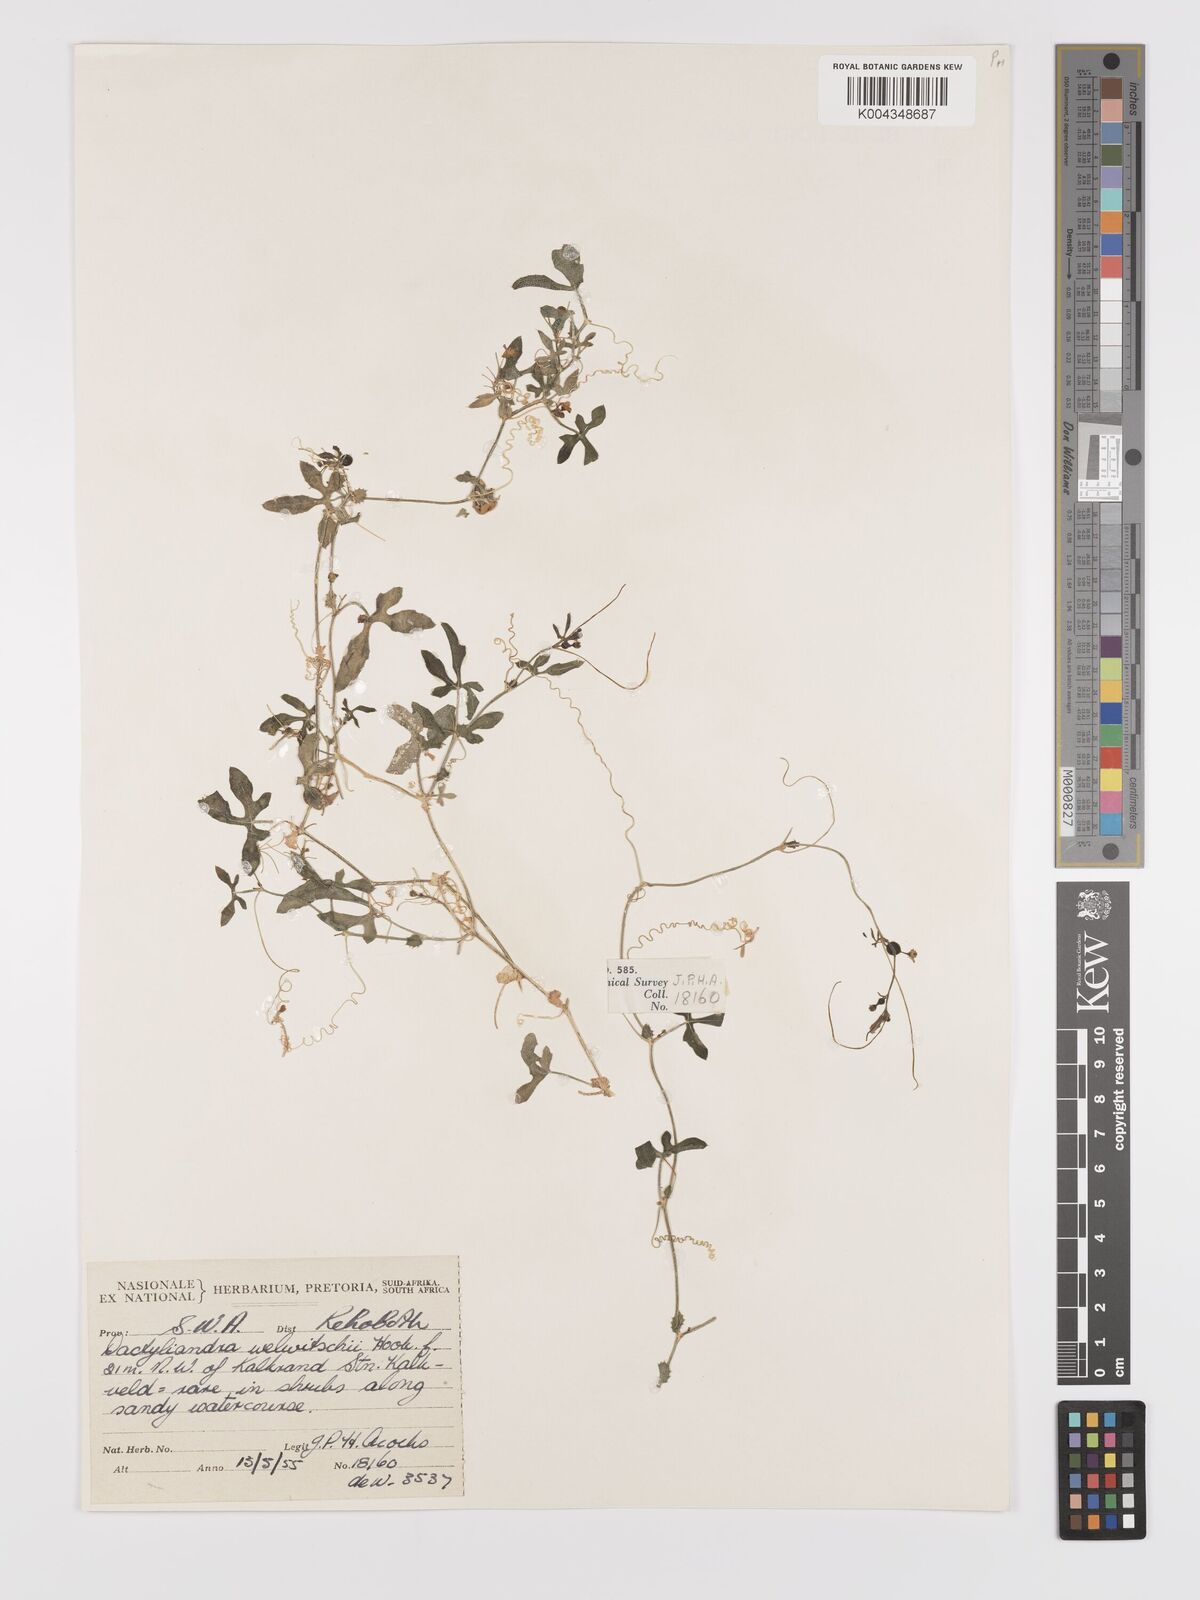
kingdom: Plantae
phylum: Tracheophyta
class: Magnoliopsida
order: Cucurbitales
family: Cucurbitaceae
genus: Dactyliandra
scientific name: Dactyliandra welwitschii
